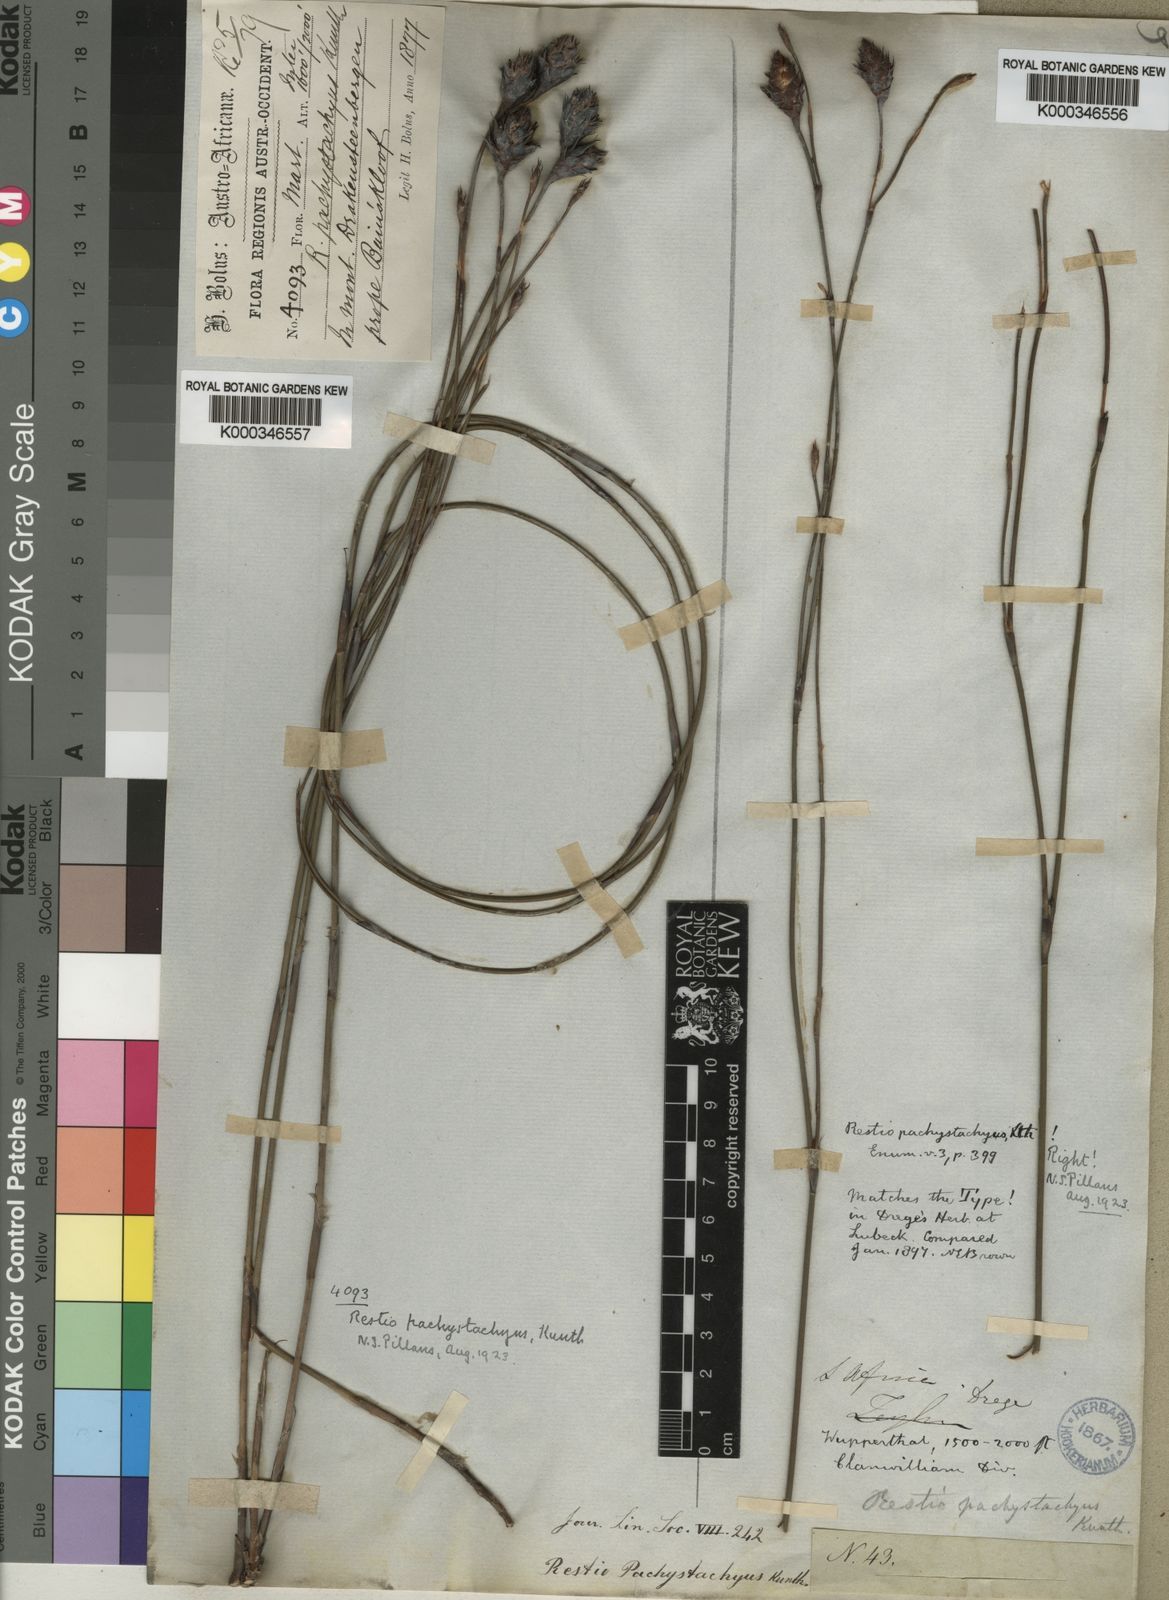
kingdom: Plantae
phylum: Tracheophyta
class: Liliopsida
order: Poales
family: Restionaceae
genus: Restio
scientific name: Restio pachystachyus
